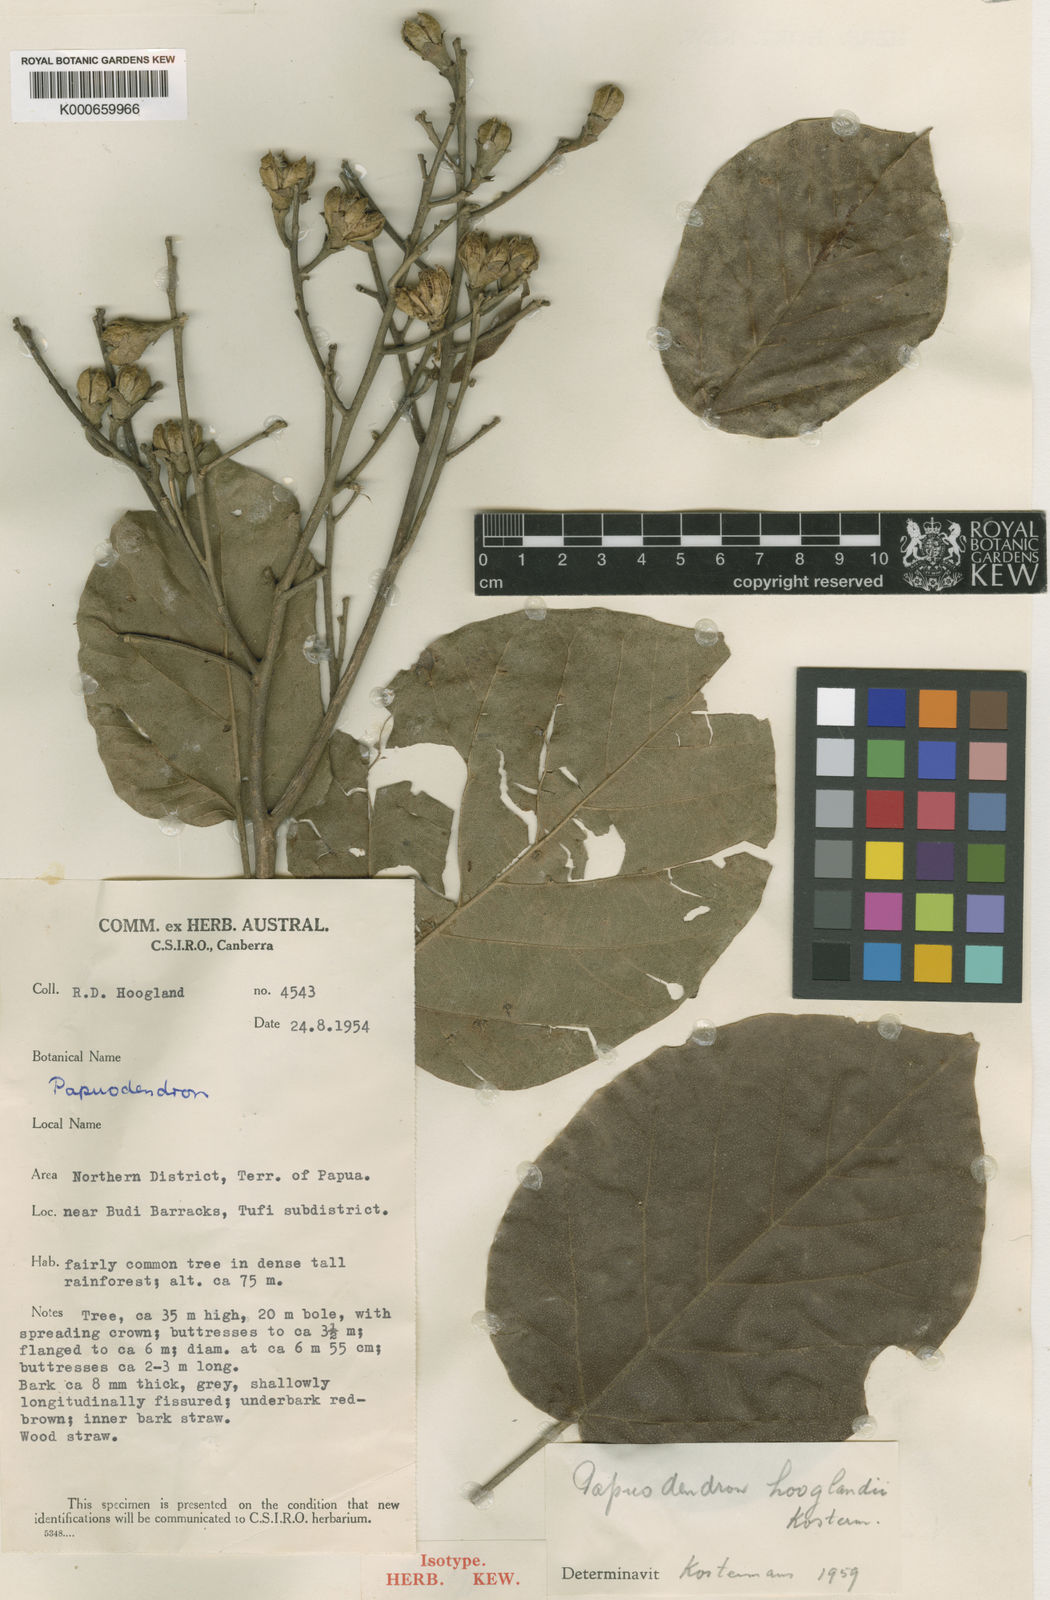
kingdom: Plantae
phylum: Tracheophyta
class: Magnoliopsida
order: Malvales
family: Malvaceae
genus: Papuodendron
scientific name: Papuodendron hooglandianum
